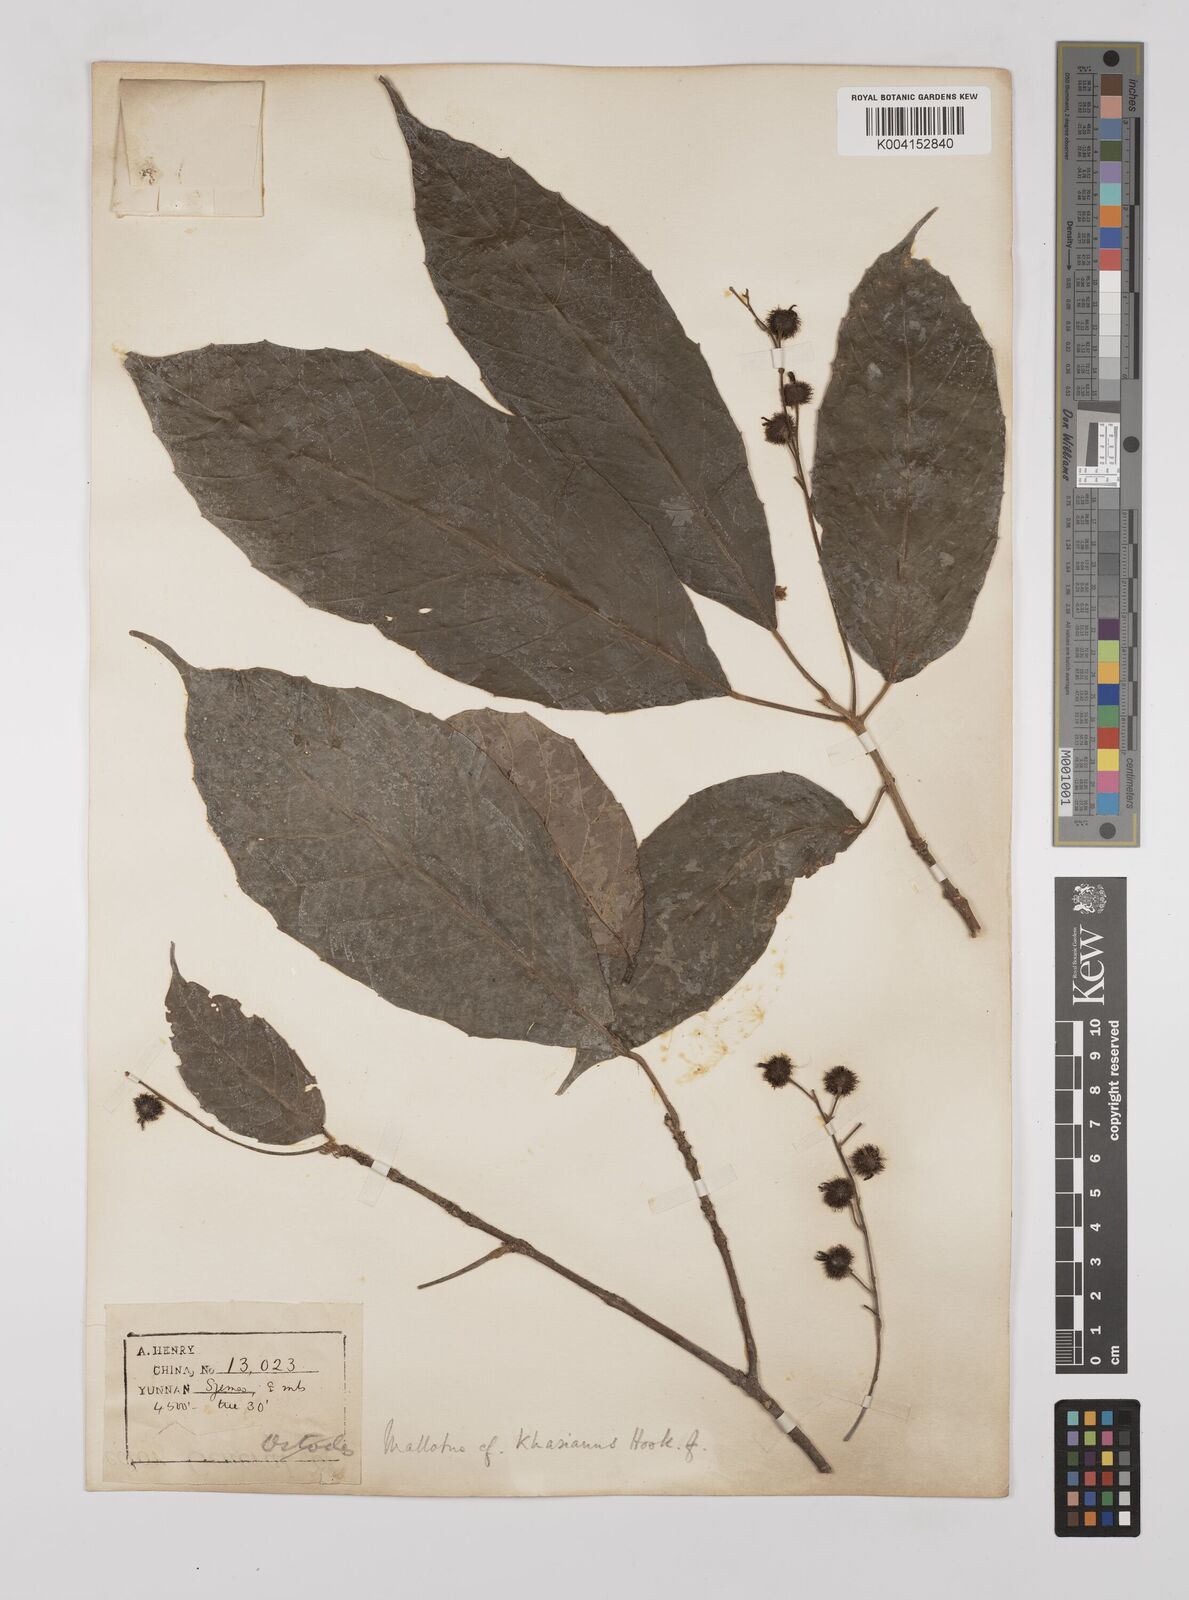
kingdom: Plantae
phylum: Tracheophyta
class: Magnoliopsida
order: Malpighiales
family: Euphorbiaceae
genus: Mallotus
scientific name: Mallotus khasianus
